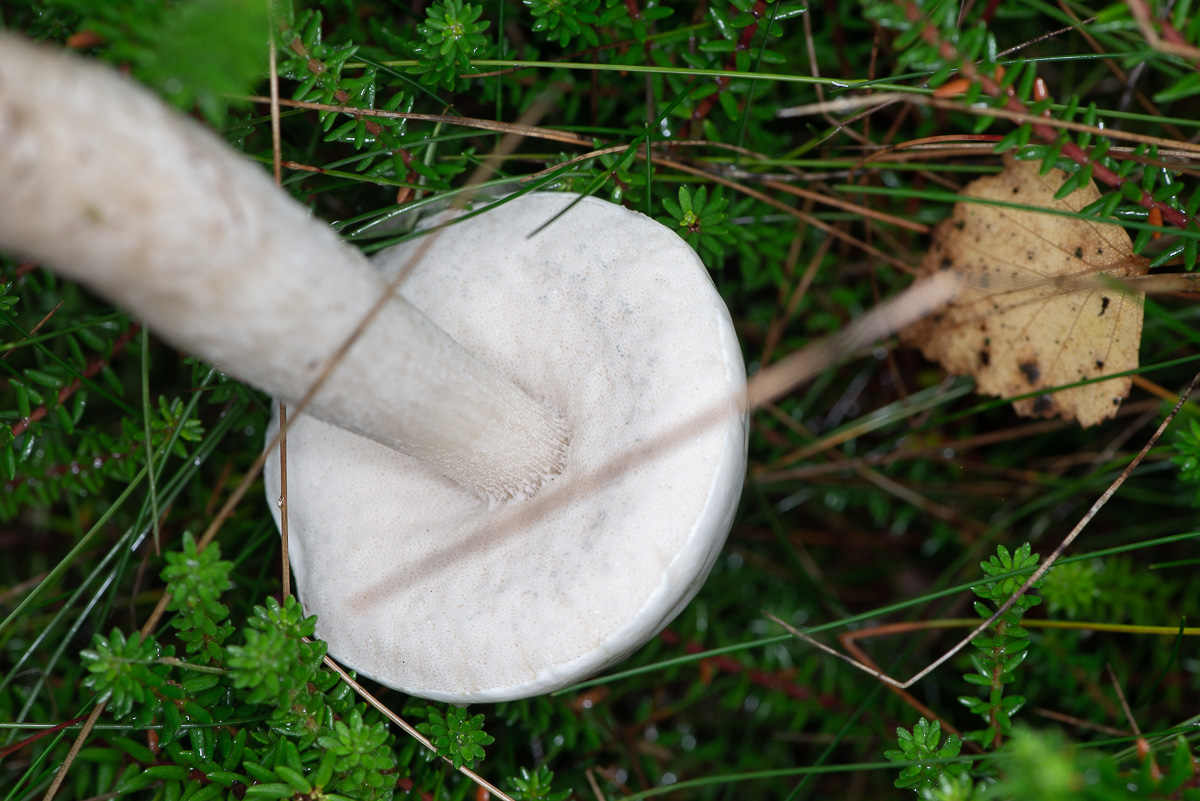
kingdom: Fungi
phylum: Basidiomycota
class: Agaricomycetes
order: Boletales
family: Boletaceae
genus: Leccinum
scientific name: Leccinum scabrum
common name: hvid skælrørhat
